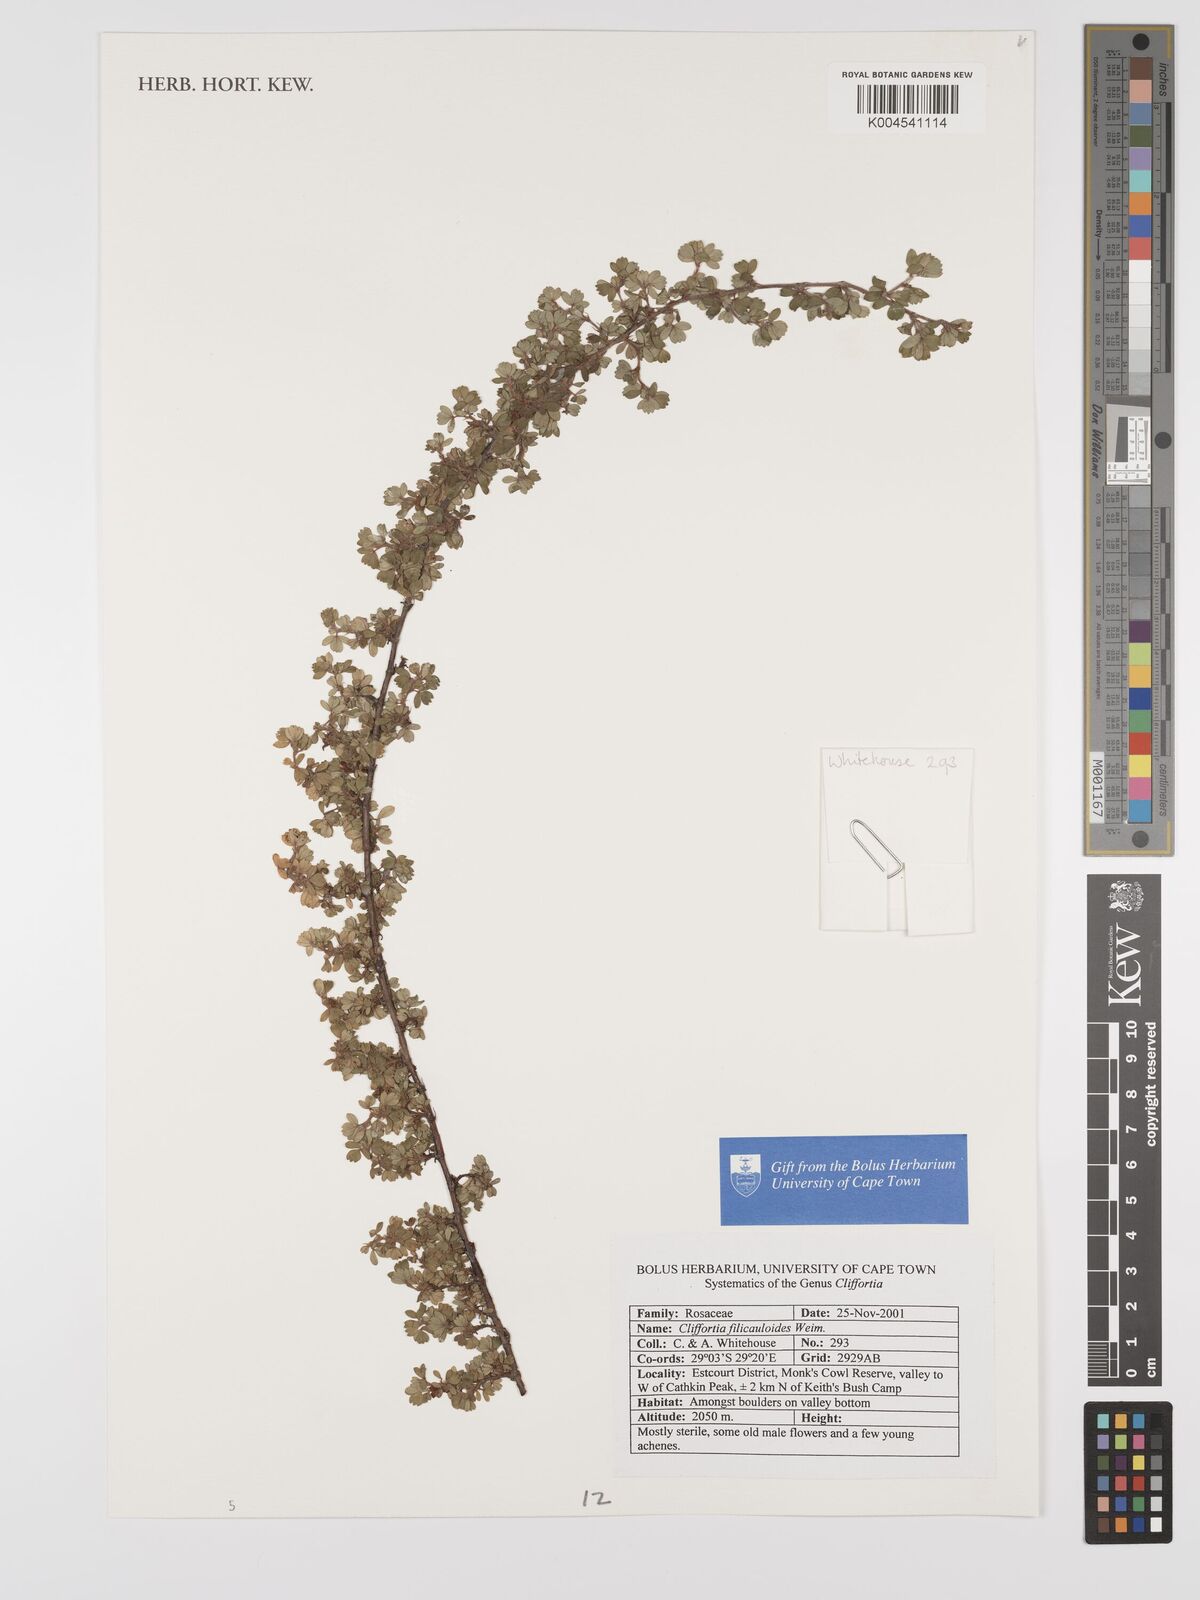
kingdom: Plantae
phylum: Tracheophyta
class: Magnoliopsida
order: Rosales
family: Rosaceae
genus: Cliffortia
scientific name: Cliffortia filicauloides
